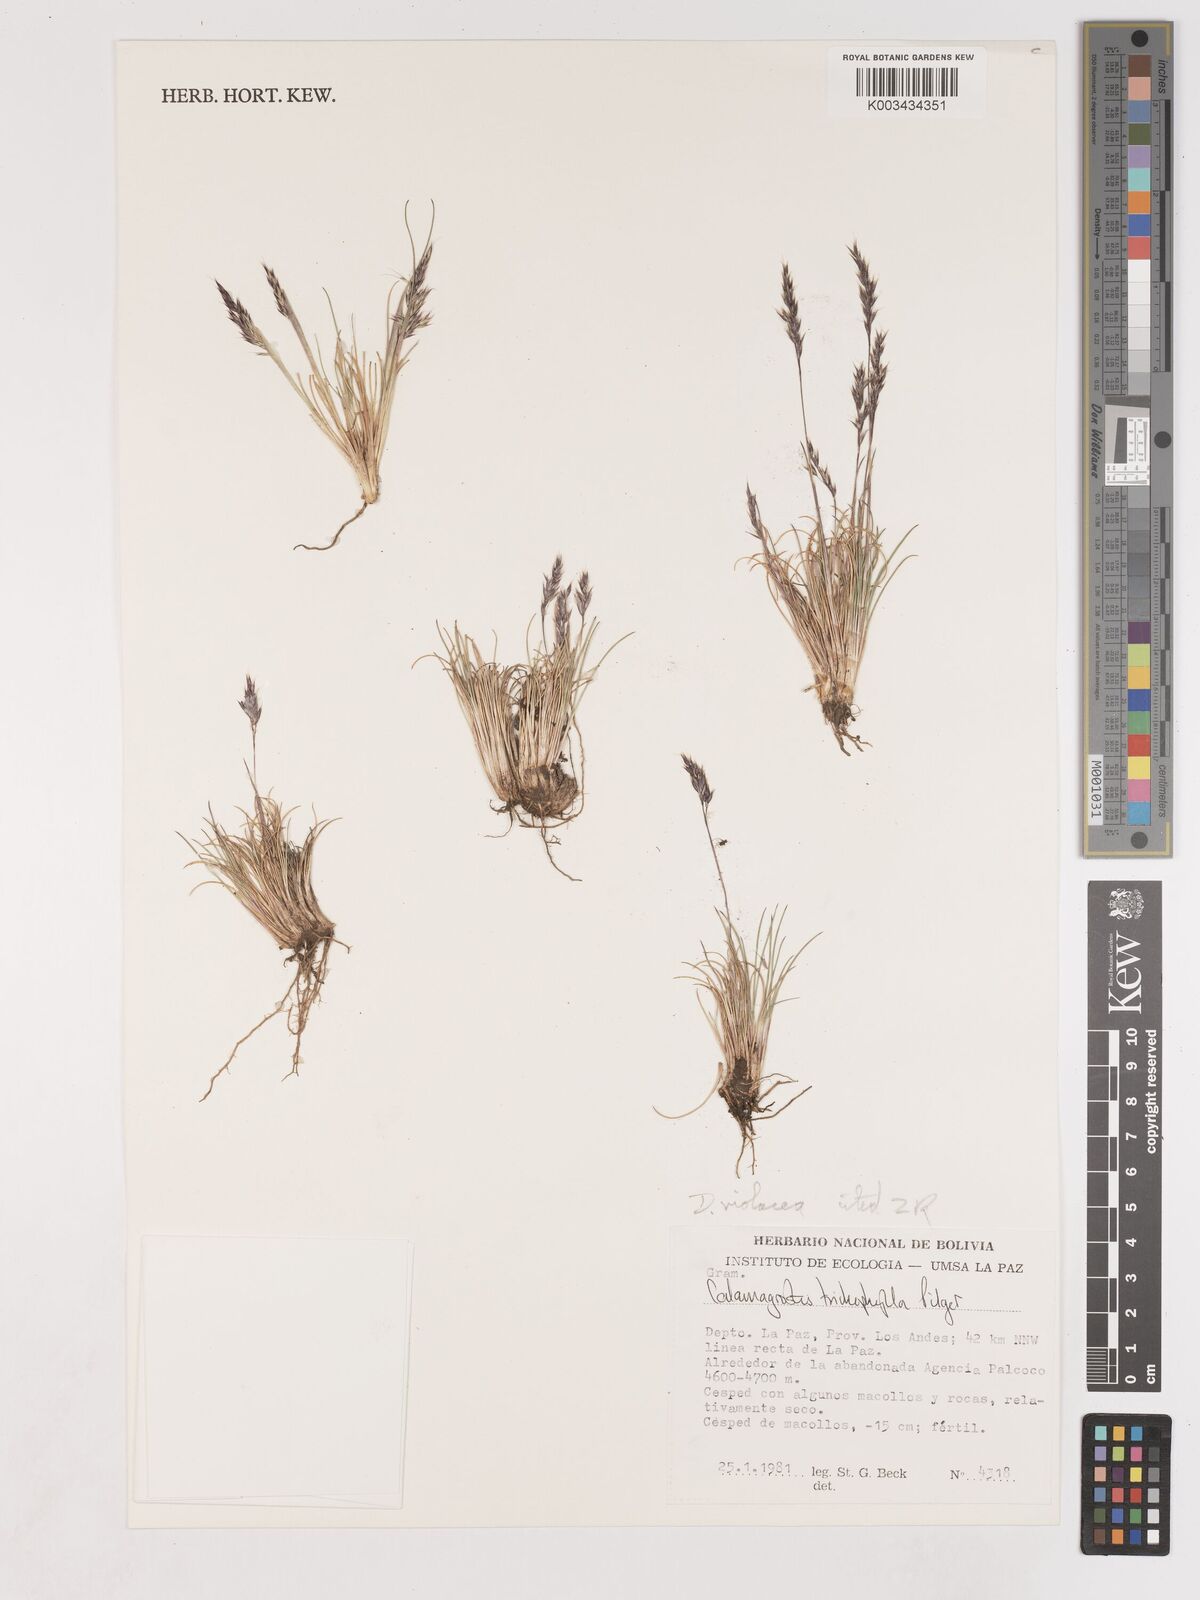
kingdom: Plantae
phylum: Tracheophyta
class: Liliopsida
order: Poales
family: Poaceae
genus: Cinnagrostis
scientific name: Cinnagrostis violacea
